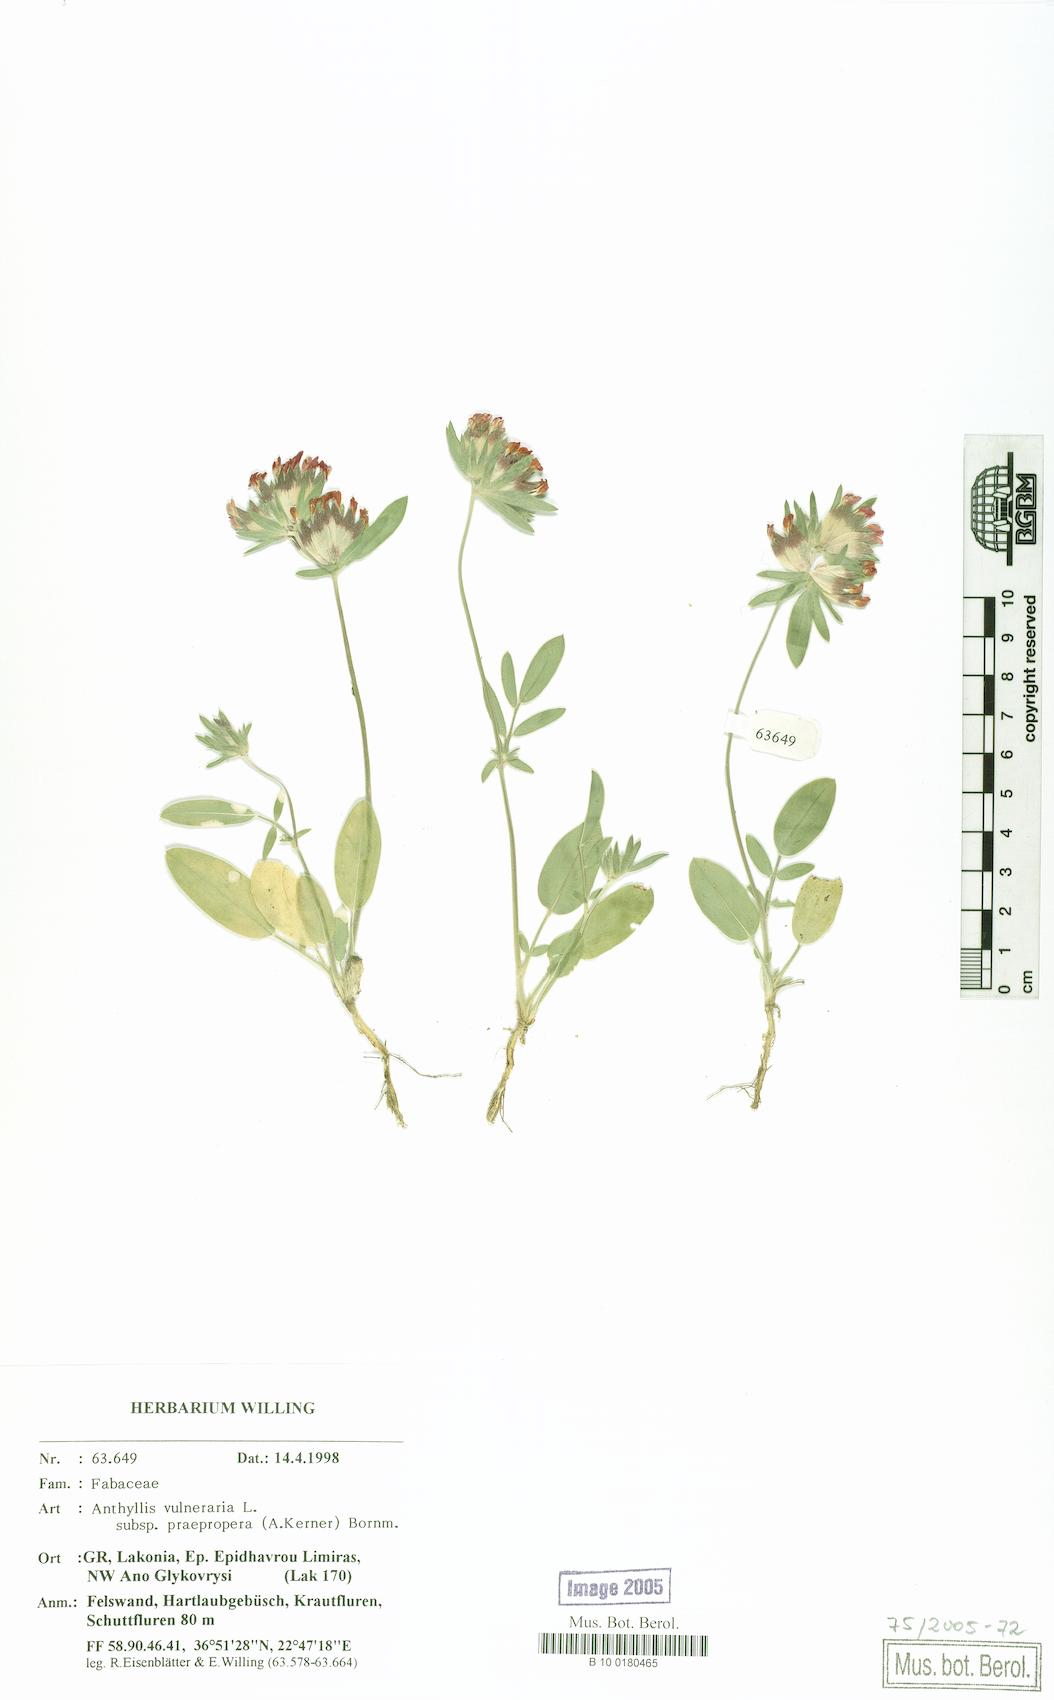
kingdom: Plantae
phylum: Tracheophyta
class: Magnoliopsida
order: Fabales
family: Fabaceae
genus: Anthyllis
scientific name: Anthyllis vulneraria
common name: Kidney vetch
